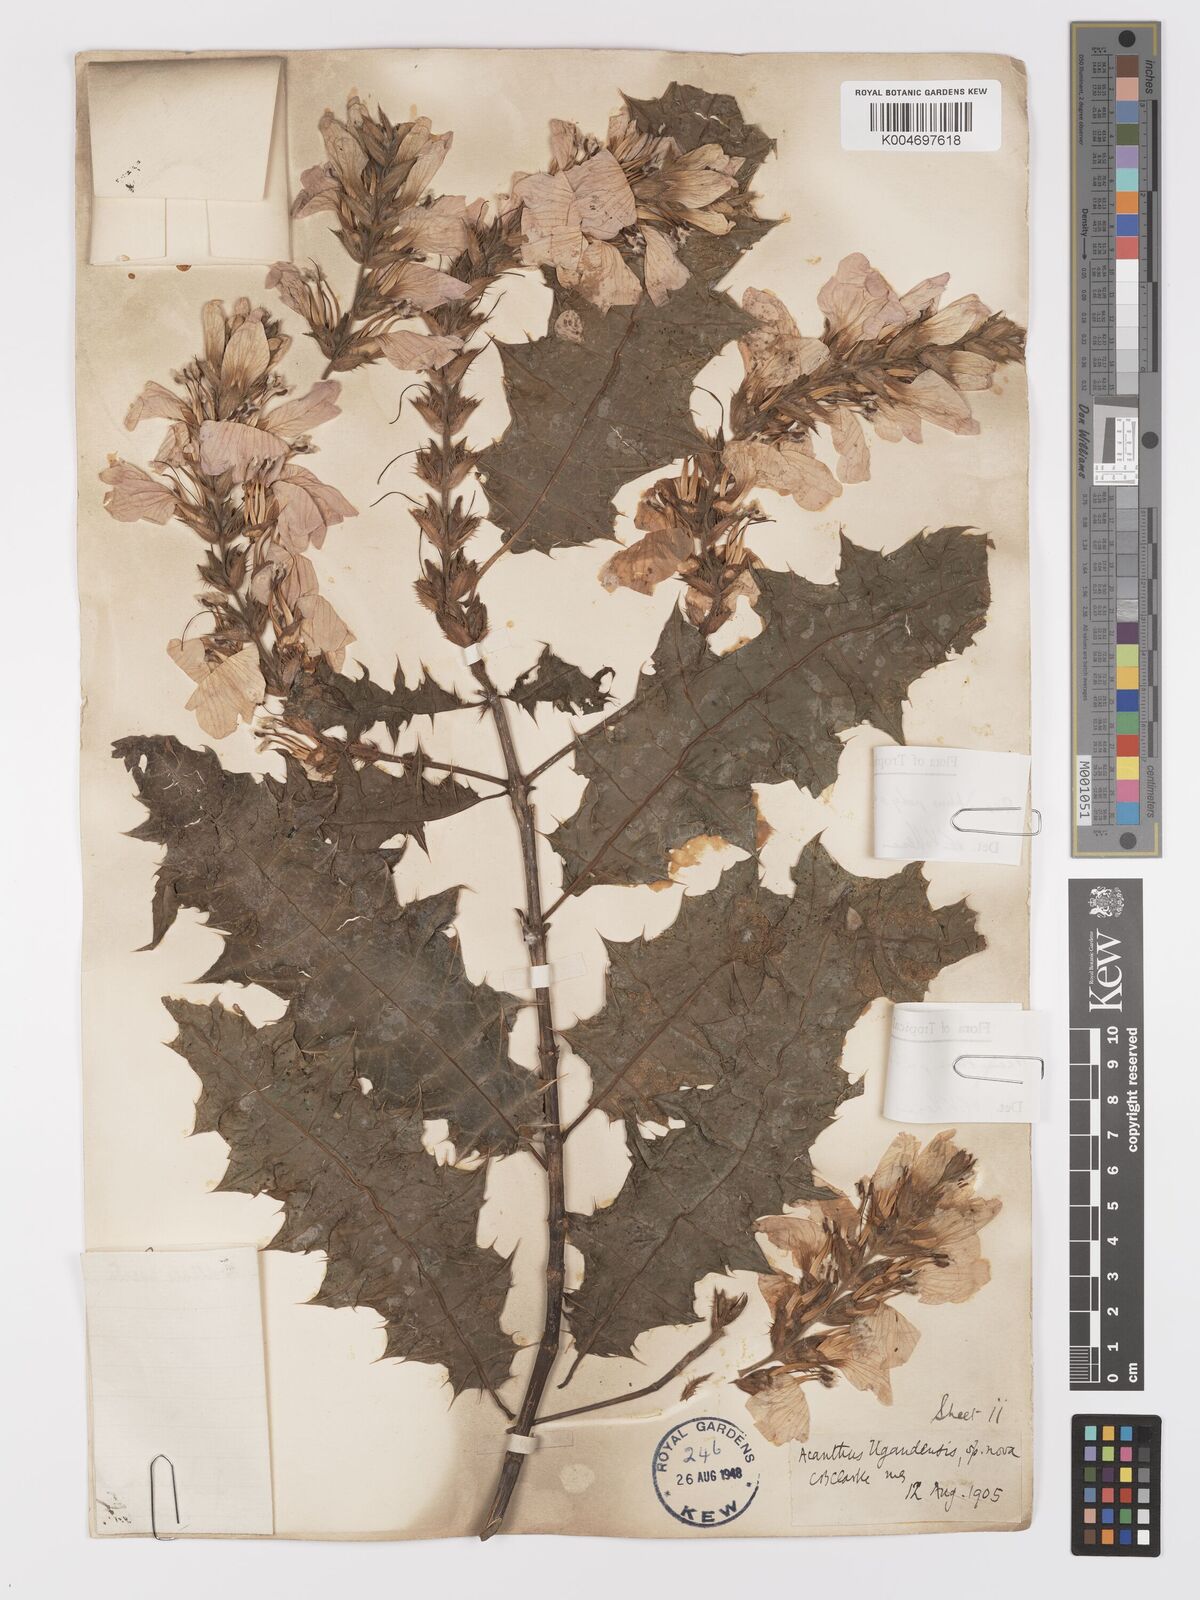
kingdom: Plantae
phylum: Tracheophyta
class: Magnoliopsida
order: Lamiales
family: Acanthaceae
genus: Acanthus
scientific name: Acanthus polystachyus
